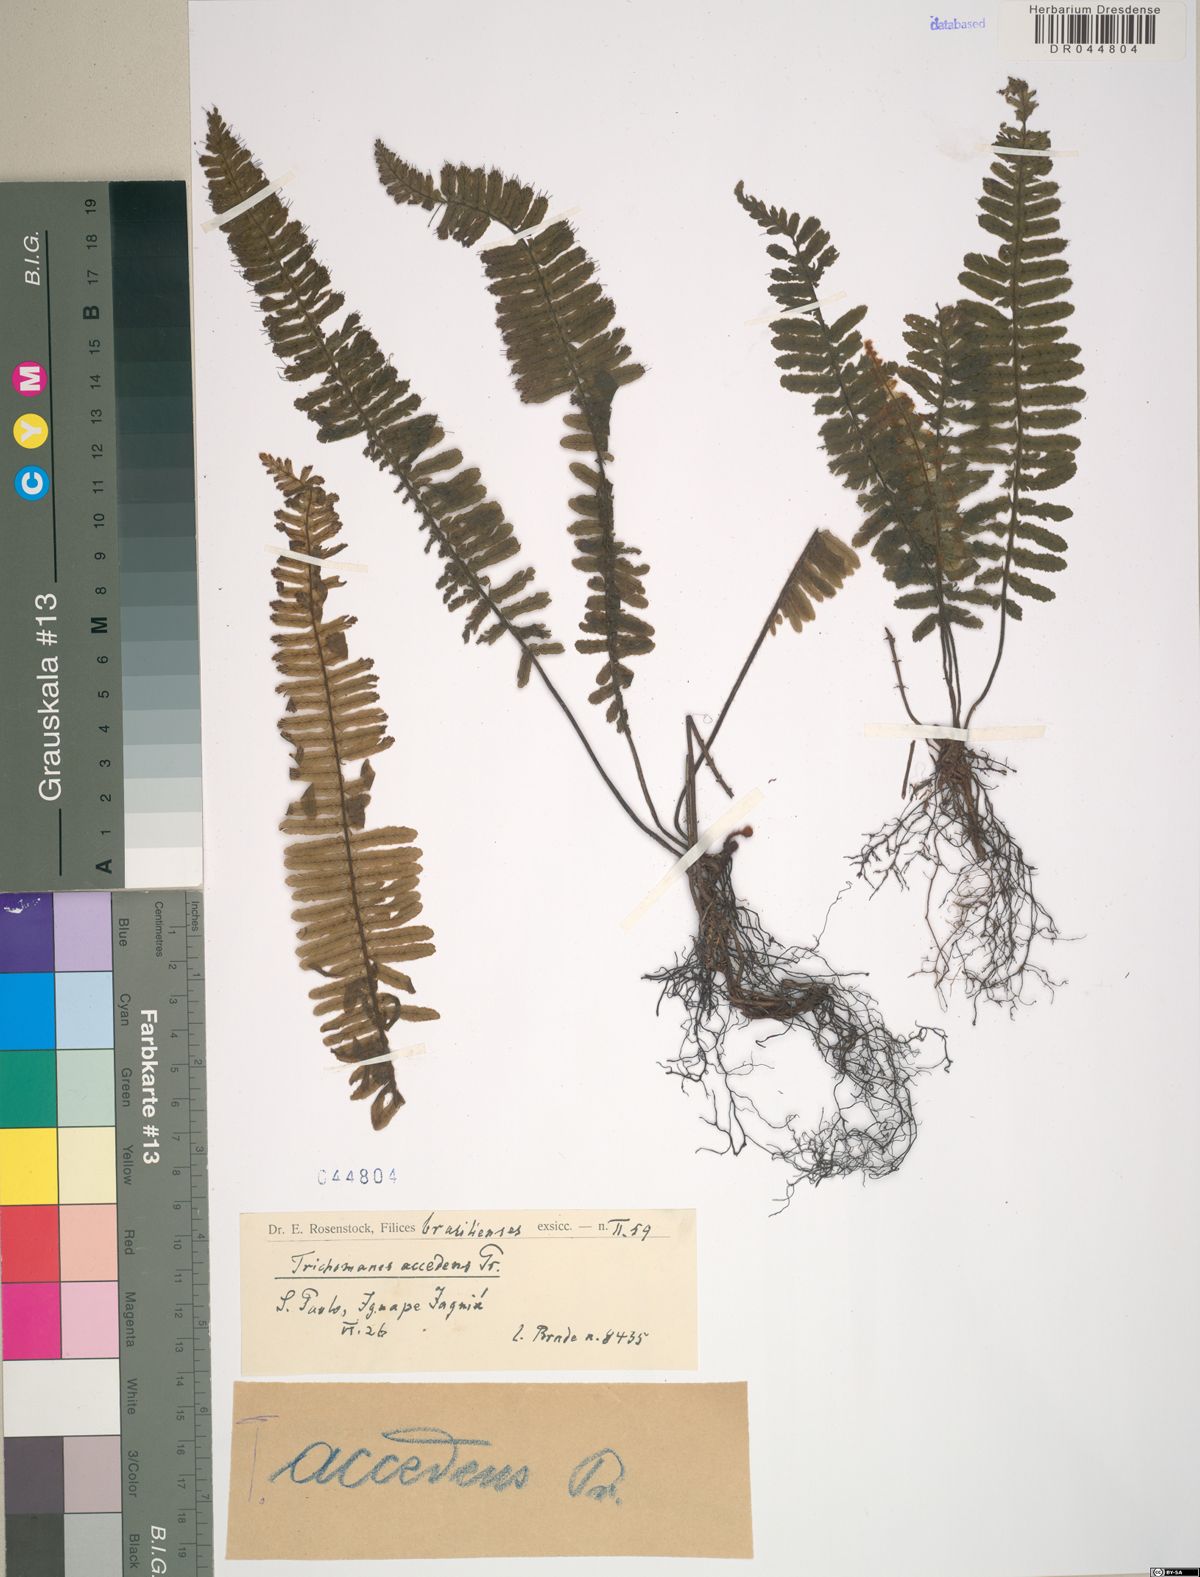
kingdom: Plantae
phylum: Tracheophyta
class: Polypodiopsida
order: Hymenophyllales
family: Hymenophyllaceae
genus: Trichomanes
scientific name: Trichomanes accedens
